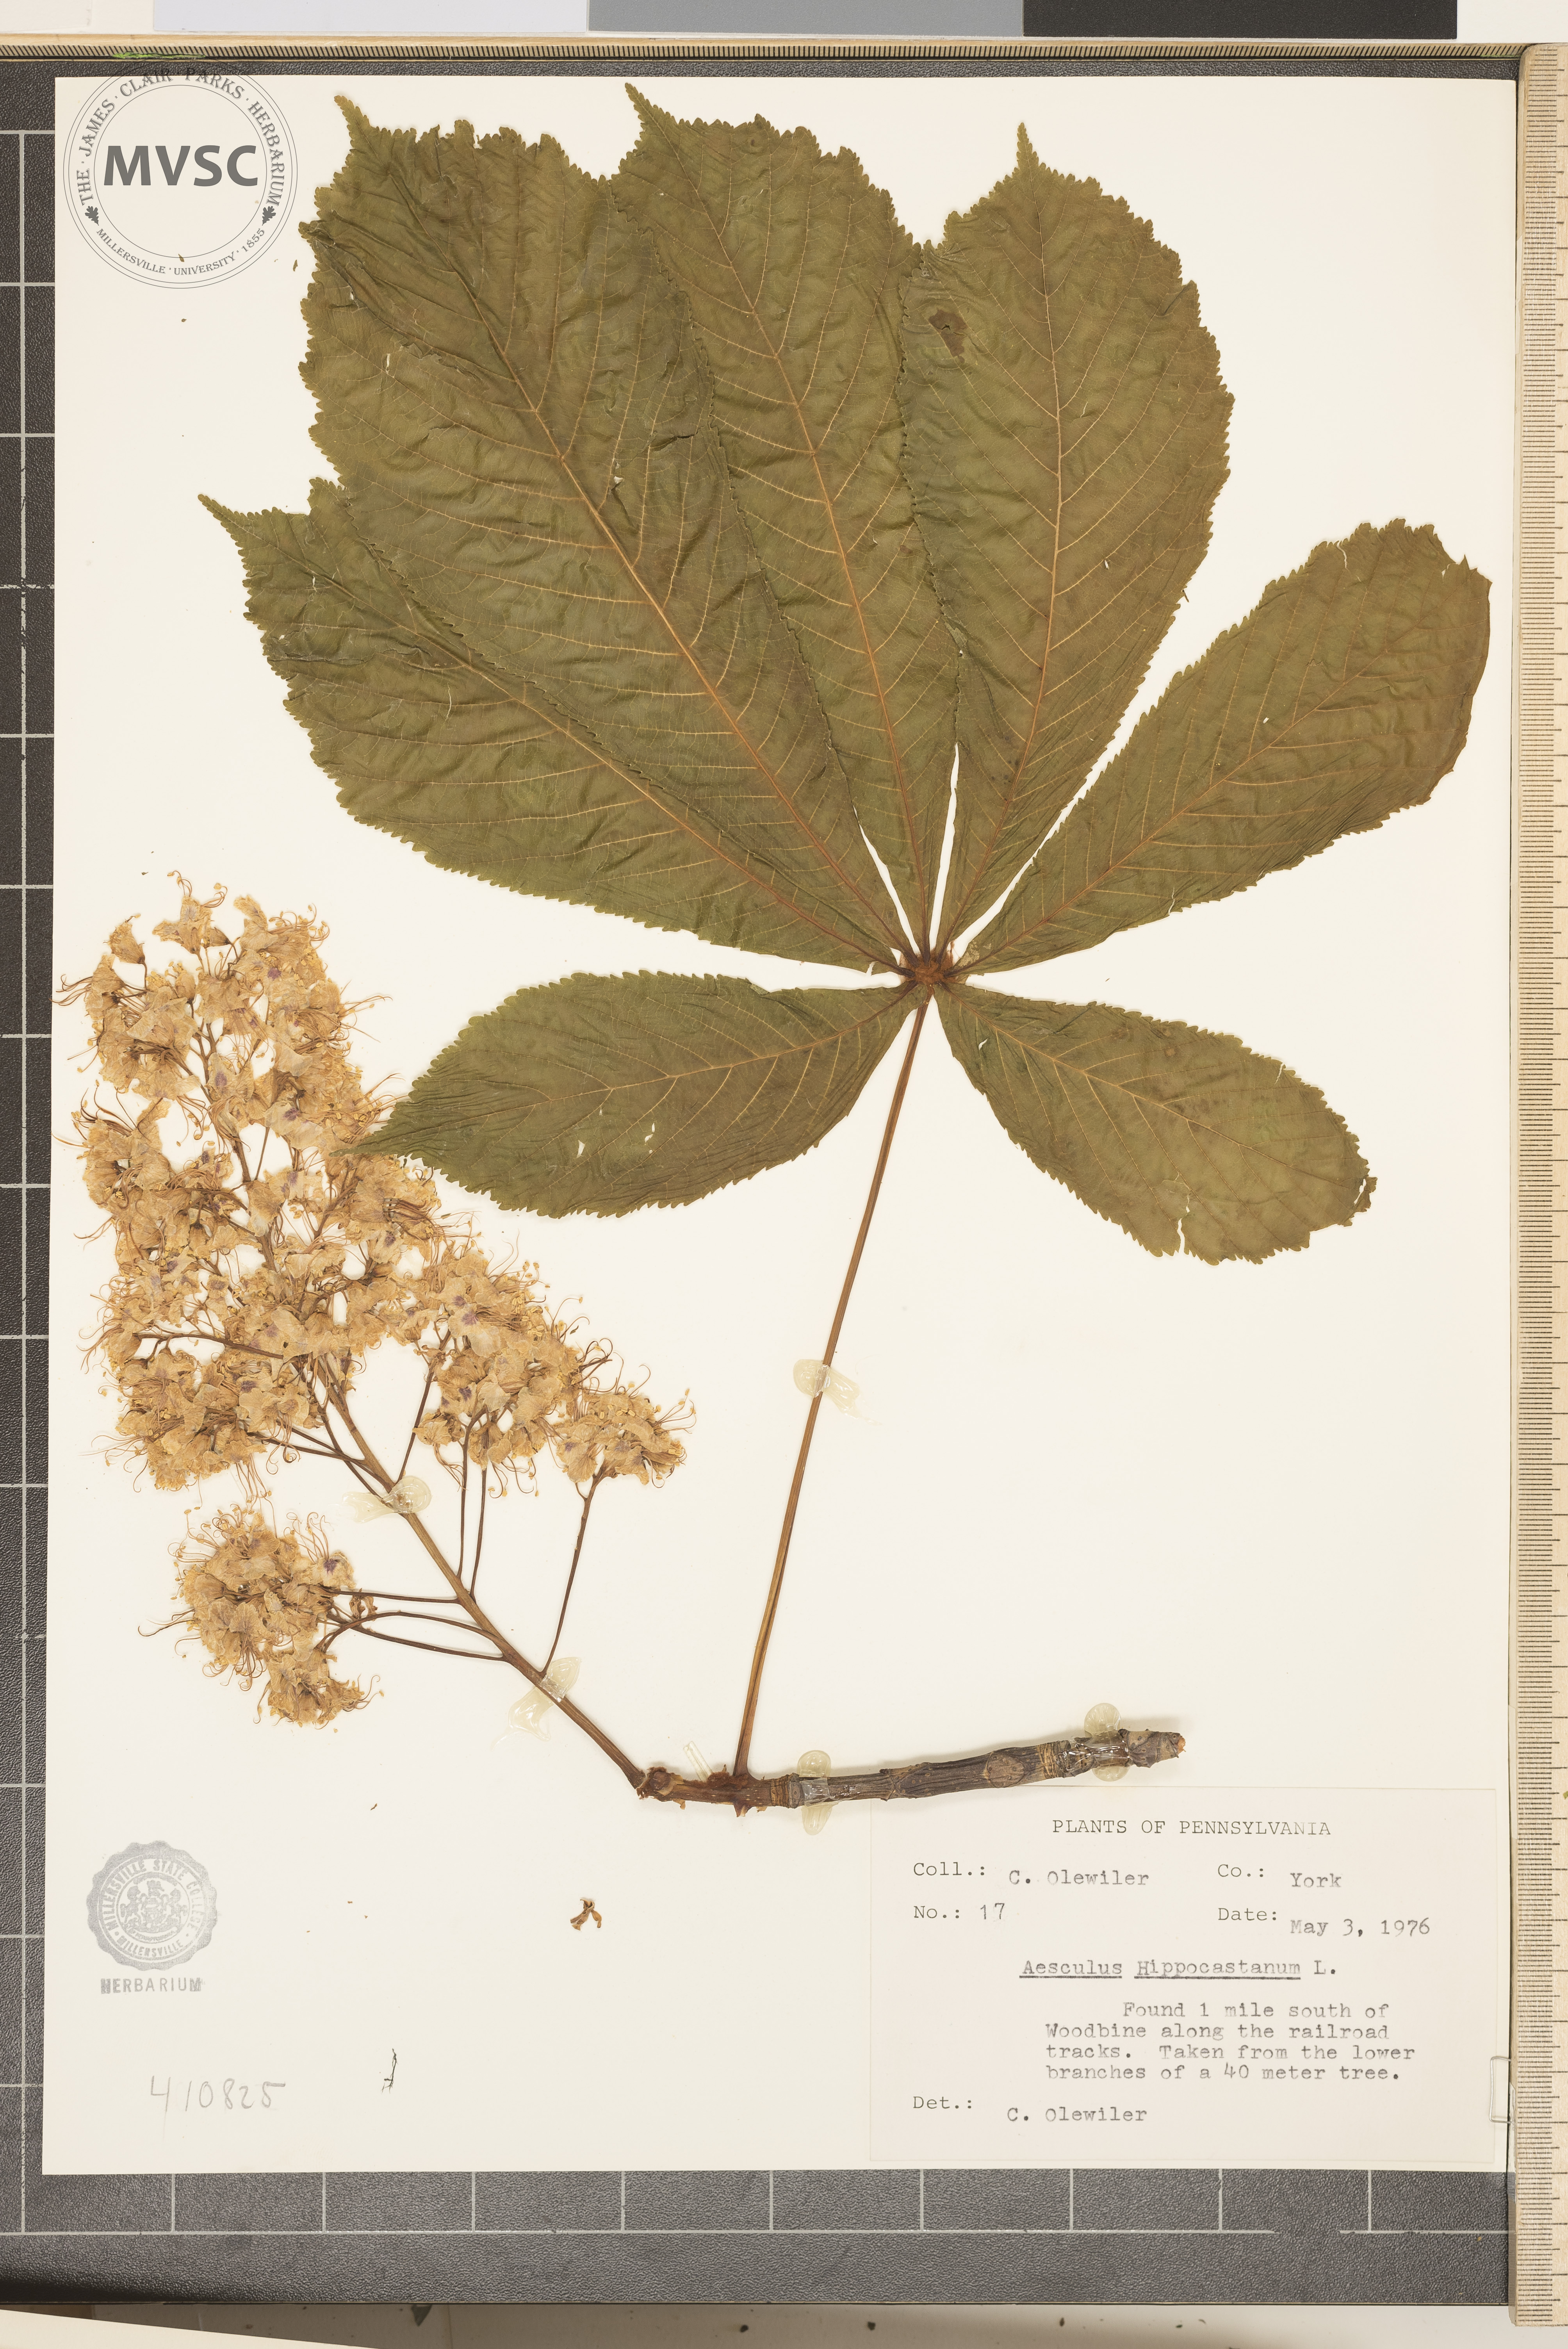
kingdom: Plantae
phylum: Tracheophyta
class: Magnoliopsida
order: Sapindales
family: Sapindaceae
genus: Aesculus
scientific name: Aesculus hippocastanum
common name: Horse-chestnut
